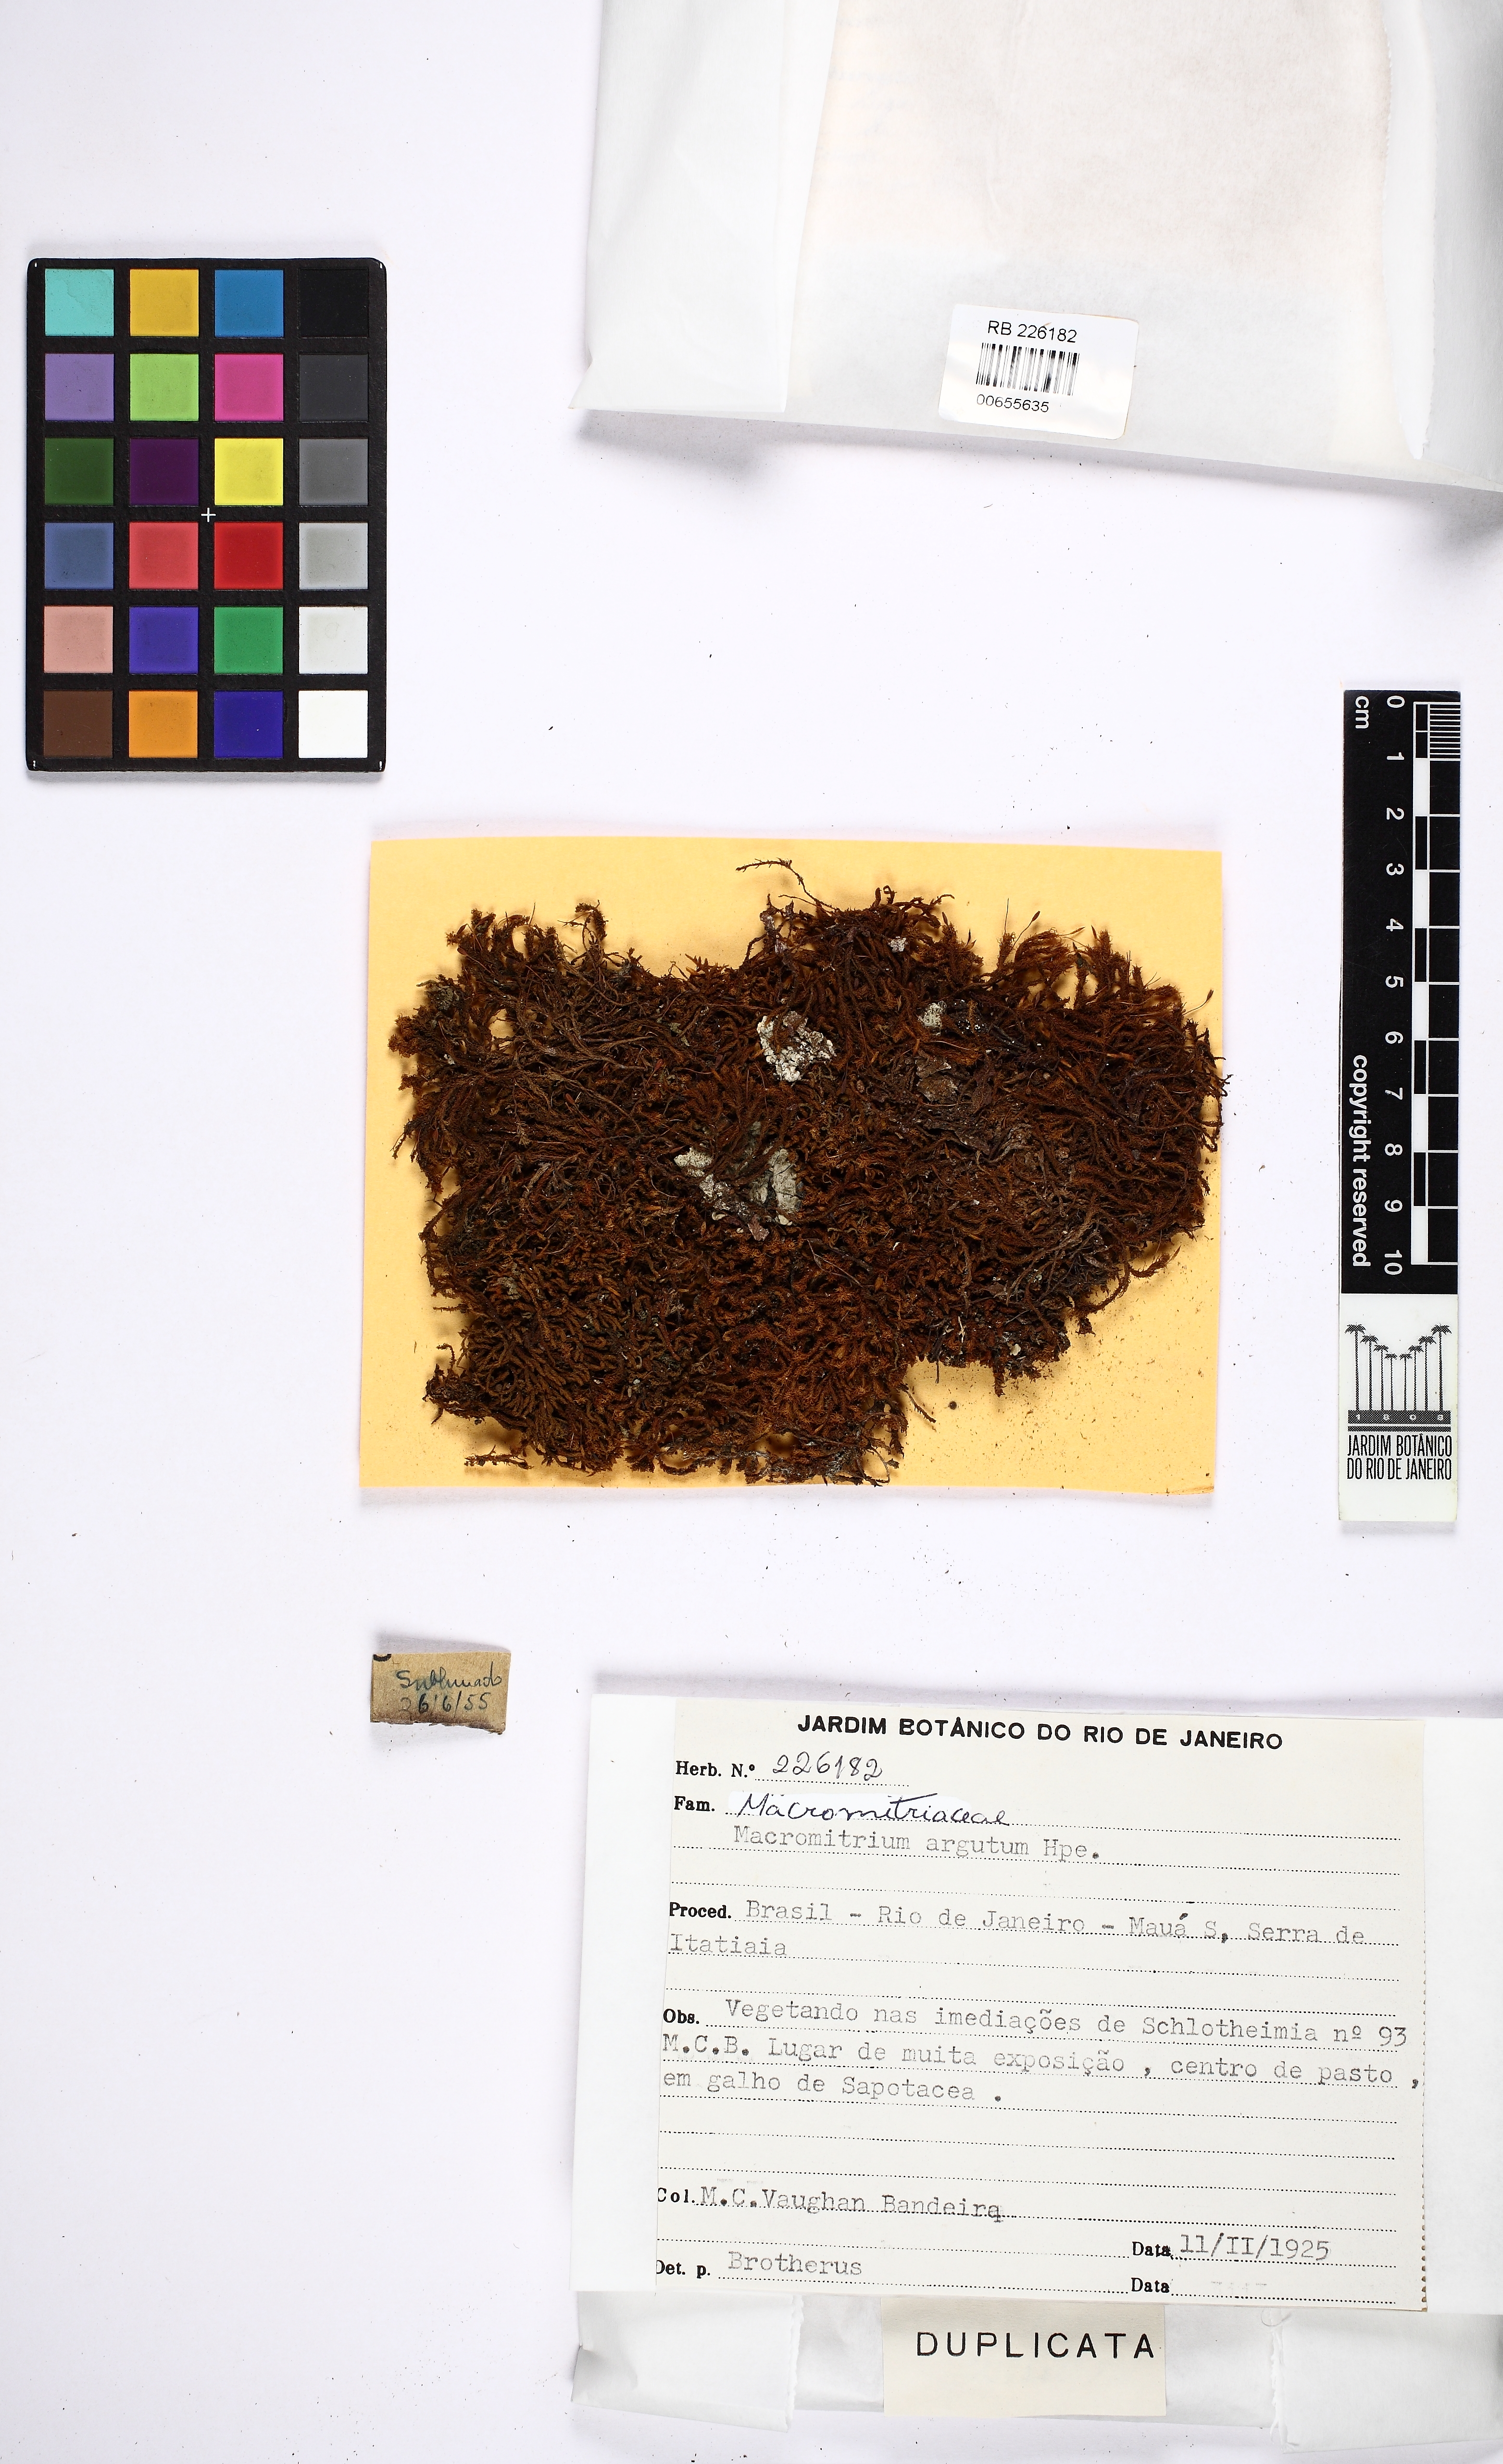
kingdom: Plantae
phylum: Bryophyta
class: Bryopsida
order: Orthotrichales
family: Orthotrichaceae
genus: Macromitrium
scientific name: Macromitrium argutum
